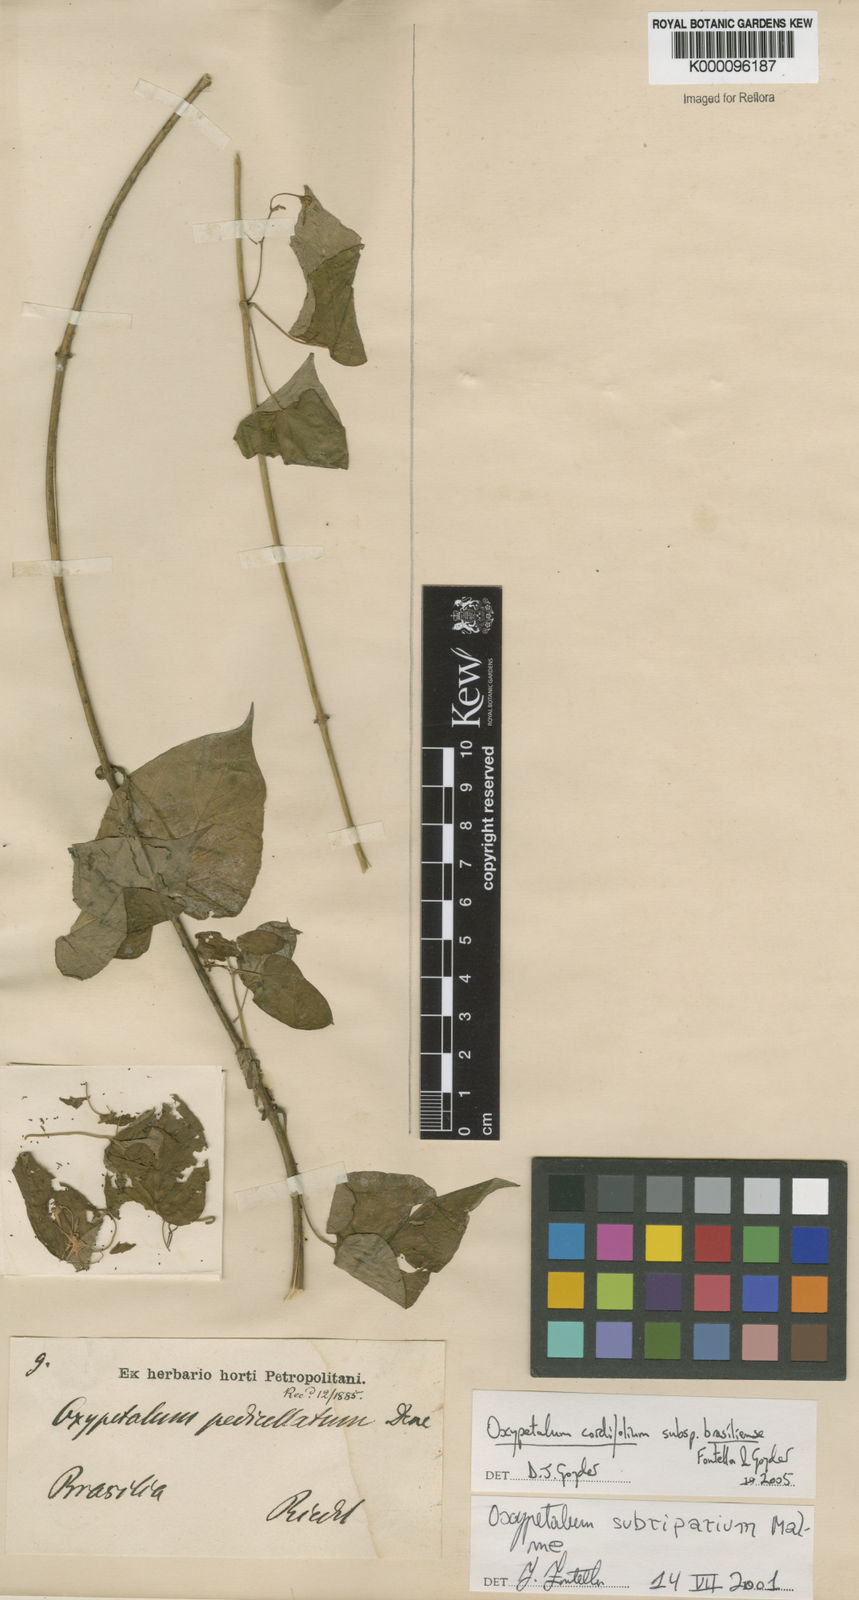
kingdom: Plantae
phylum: Tracheophyta
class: Magnoliopsida
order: Gentianales
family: Apocynaceae
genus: Oxypetalum
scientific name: Oxypetalum cordifolium
